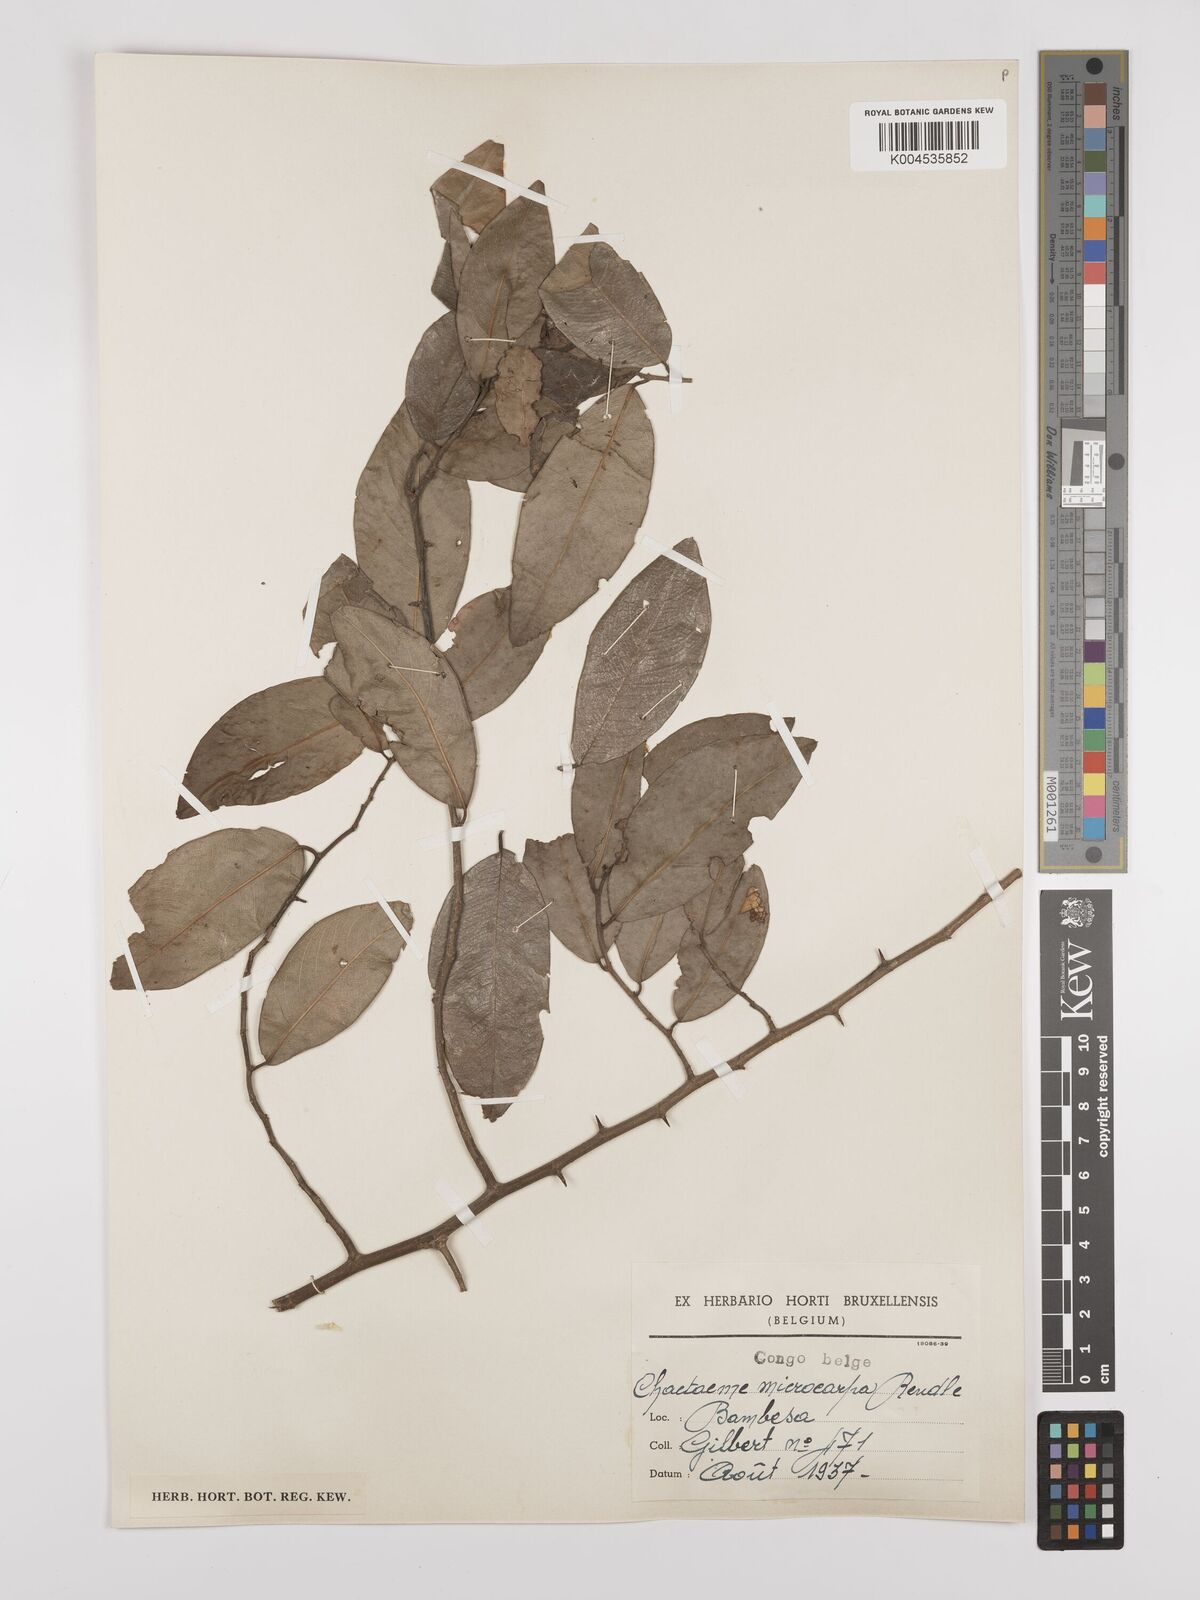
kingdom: Plantae
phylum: Tracheophyta
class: Magnoliopsida
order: Rosales
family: Cannabaceae
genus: Chaetachme
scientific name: Chaetachme aristata
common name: Thorny elm
